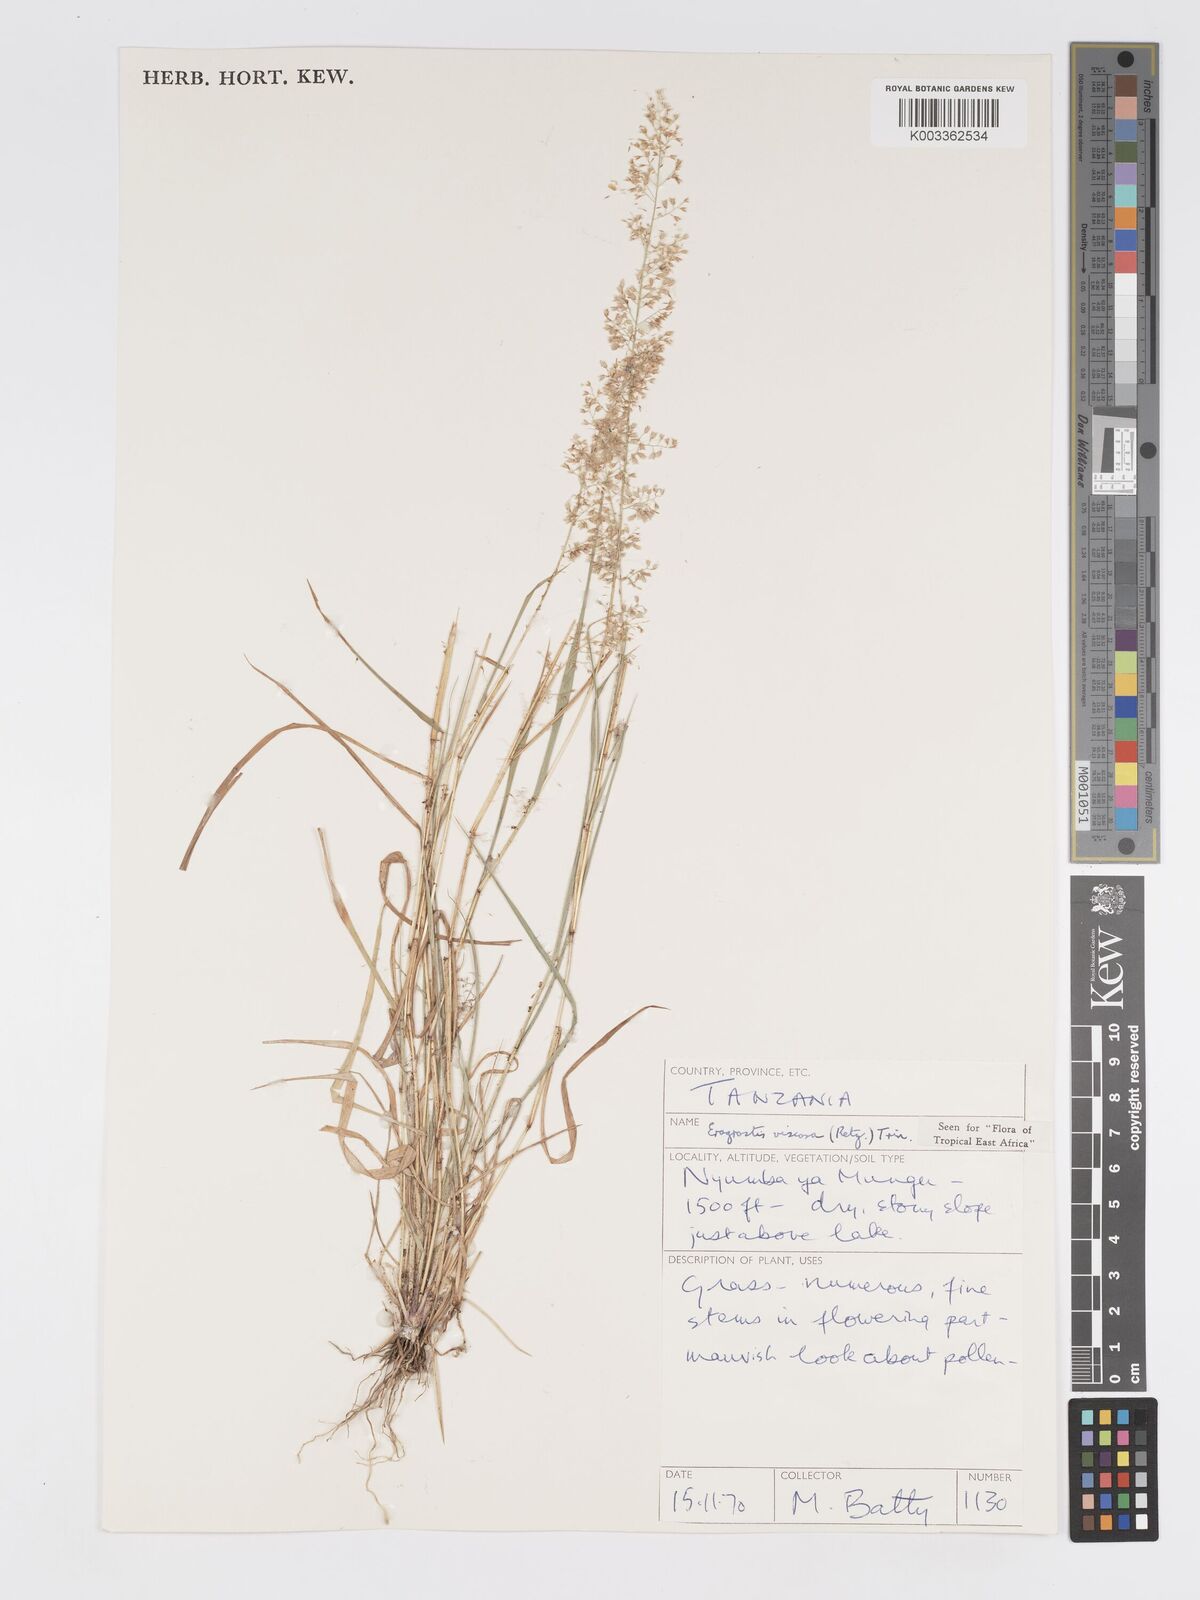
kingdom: Plantae
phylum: Tracheophyta
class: Liliopsida
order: Poales
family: Poaceae
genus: Eragrostis
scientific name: Eragrostis viscosa
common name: Sticky love grass
